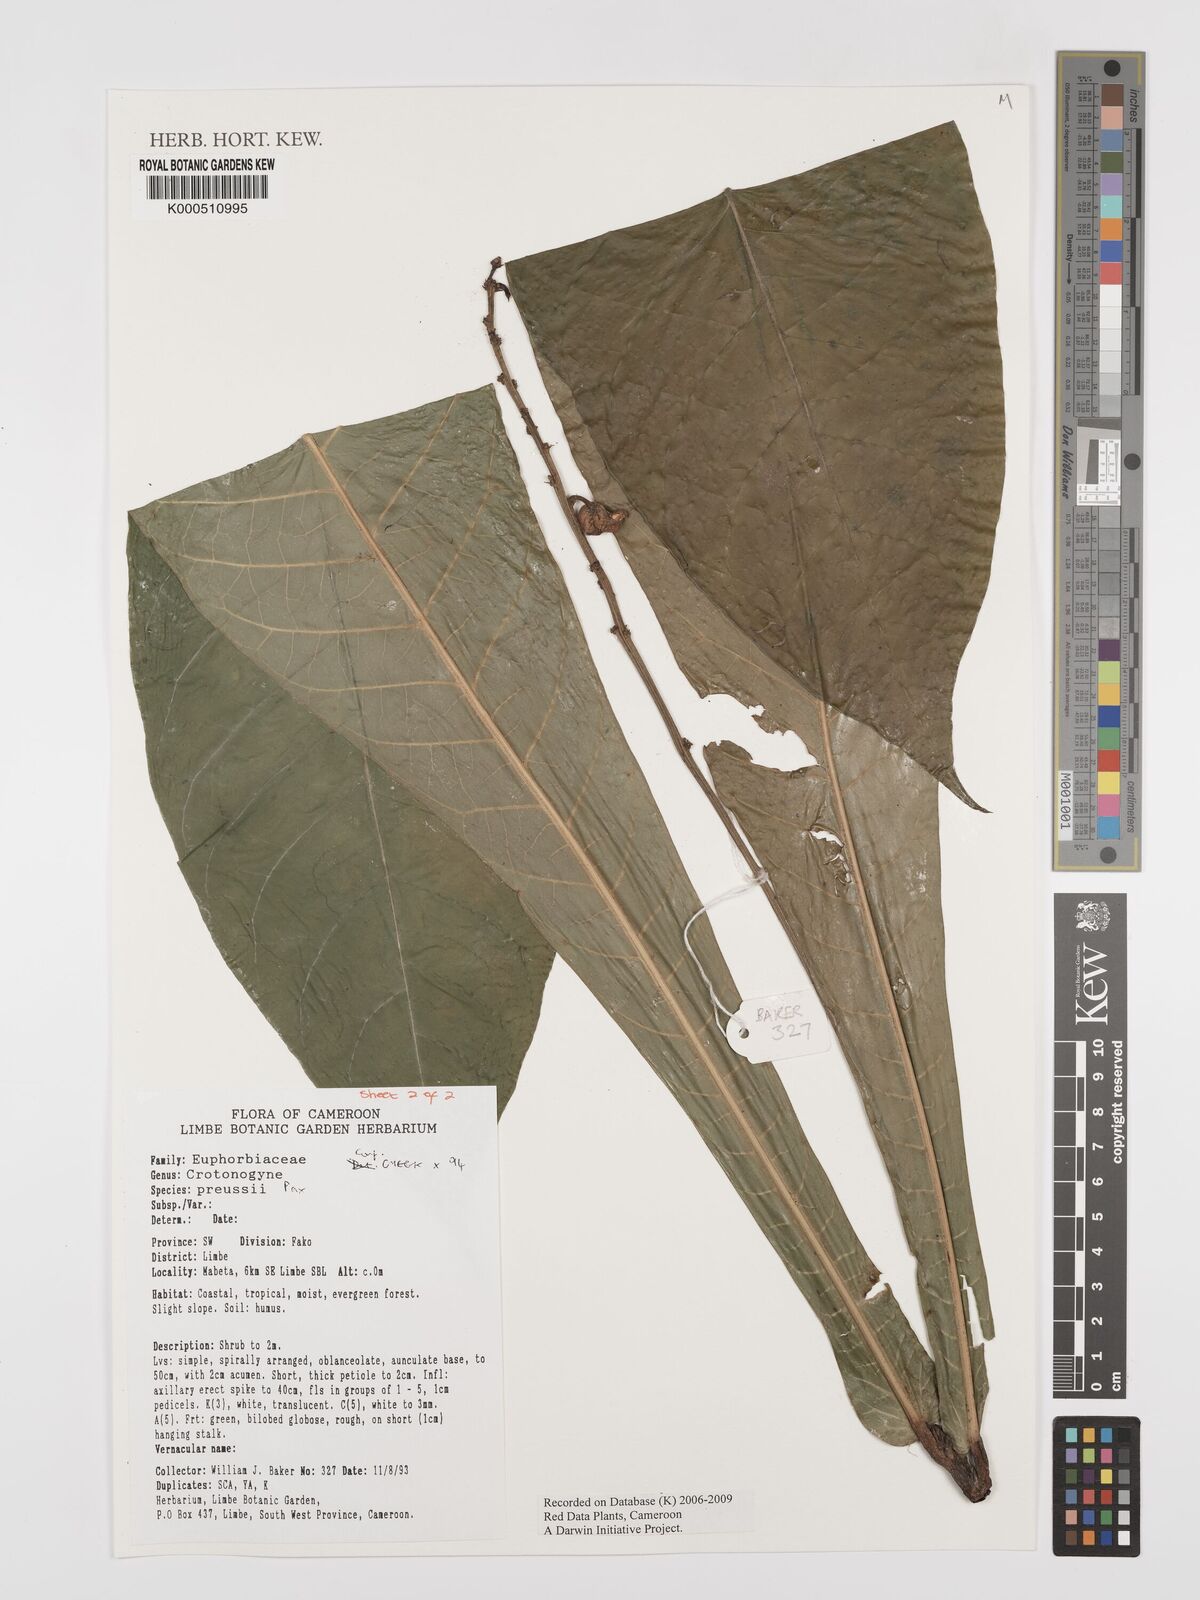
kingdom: Plantae
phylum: Tracheophyta
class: Magnoliopsida
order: Malpighiales
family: Euphorbiaceae
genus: Crotonogyne
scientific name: Crotonogyne preussii
